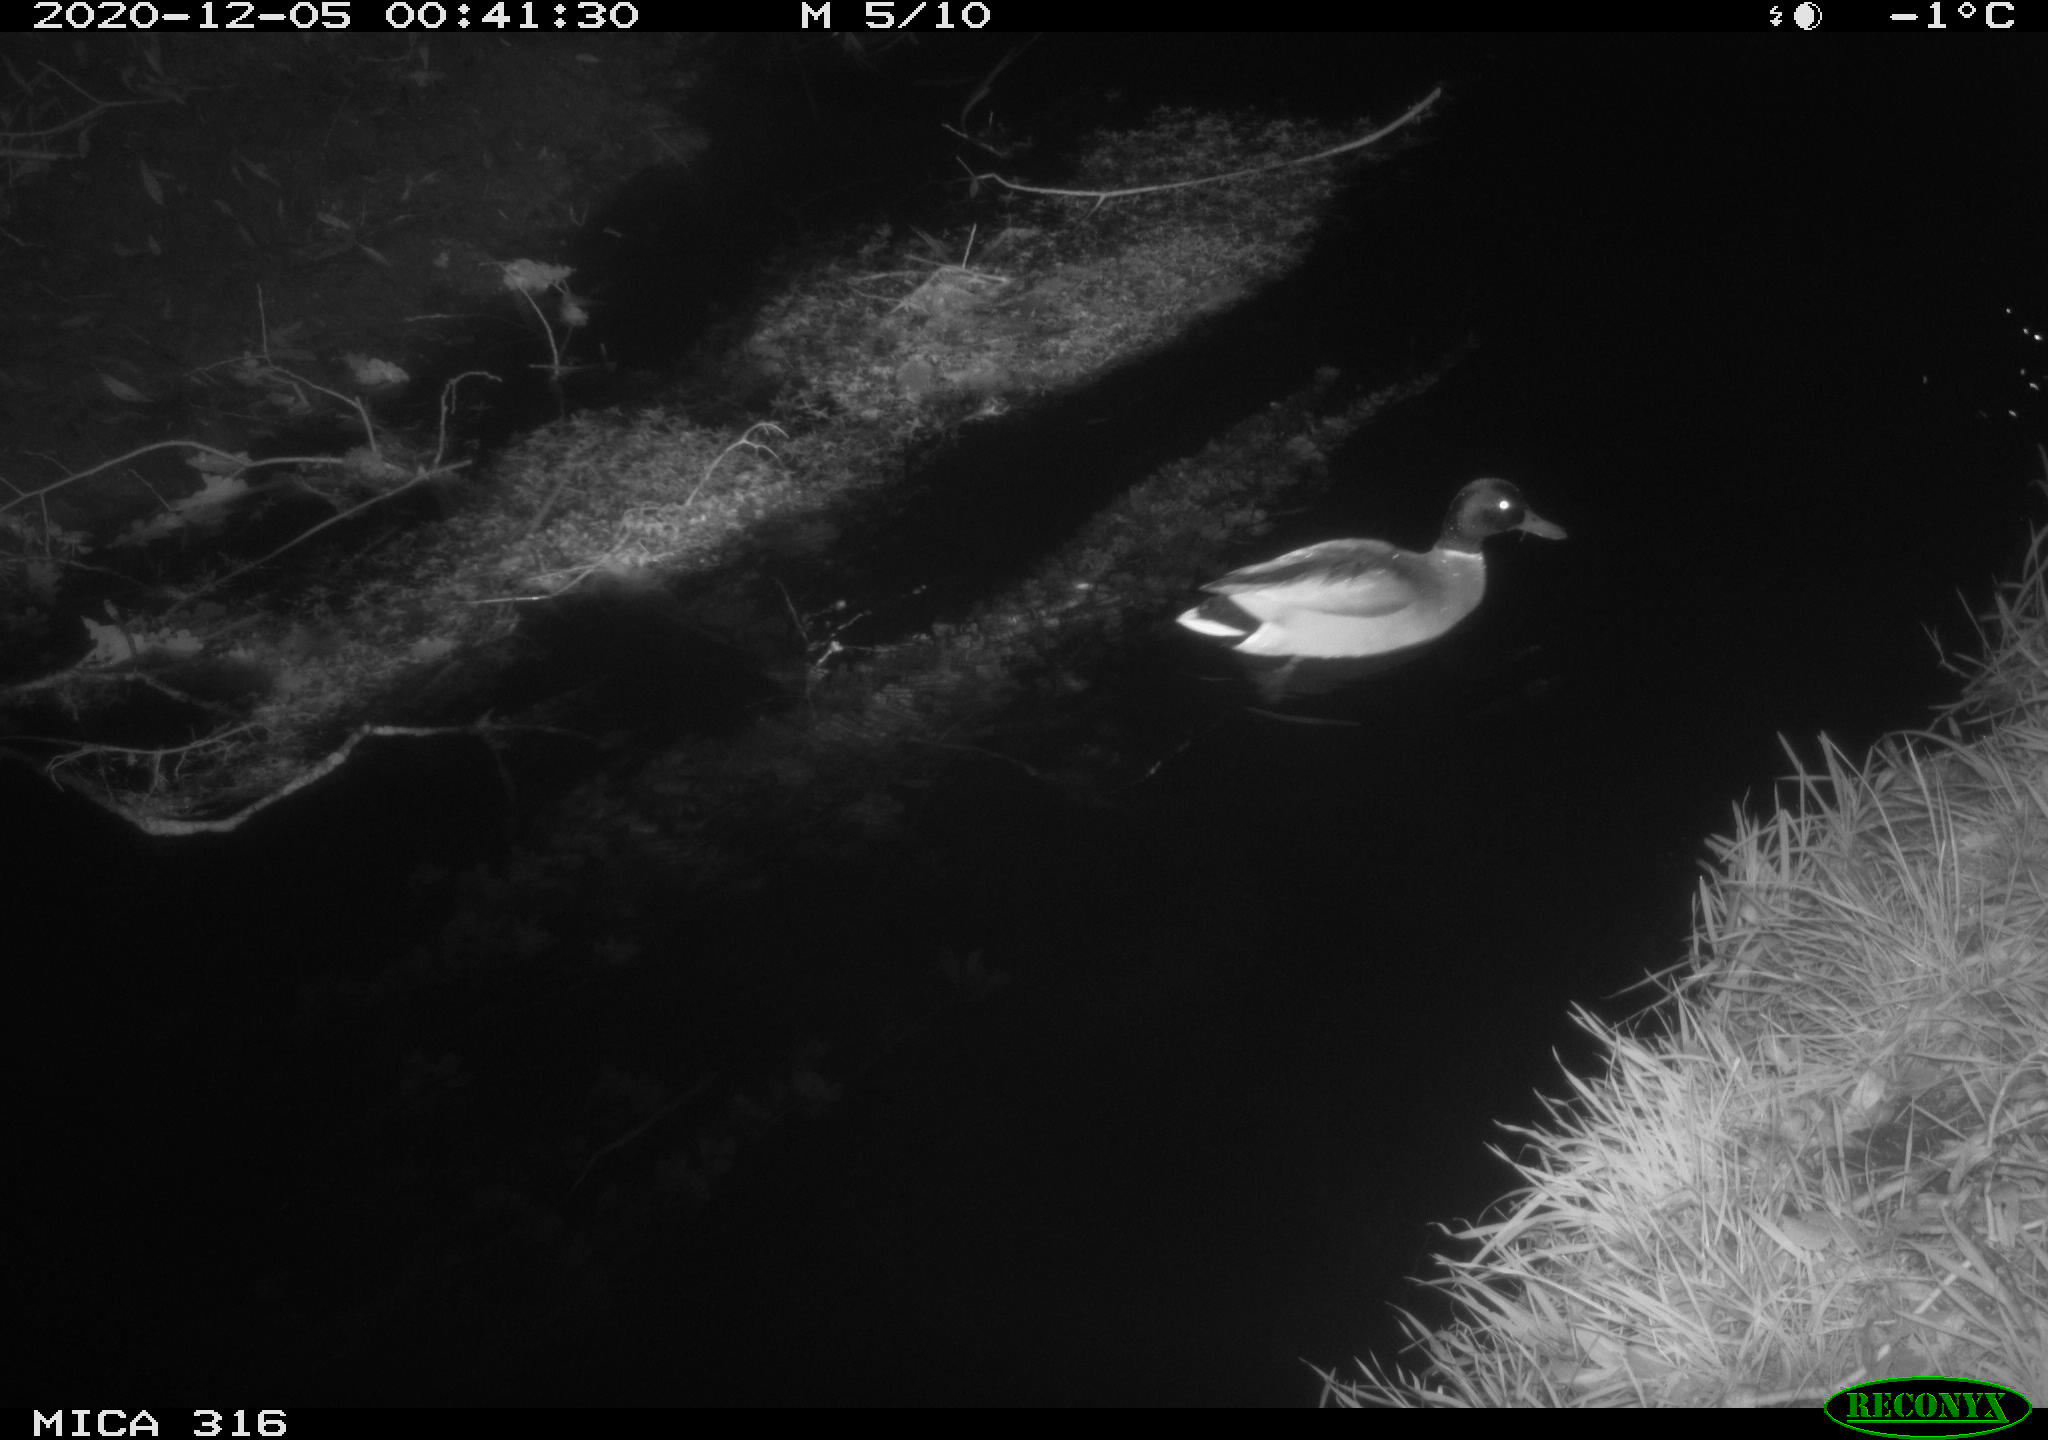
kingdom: Animalia
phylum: Chordata
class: Aves
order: Anseriformes
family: Anatidae
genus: Anas
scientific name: Anas platyrhynchos
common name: Mallard
